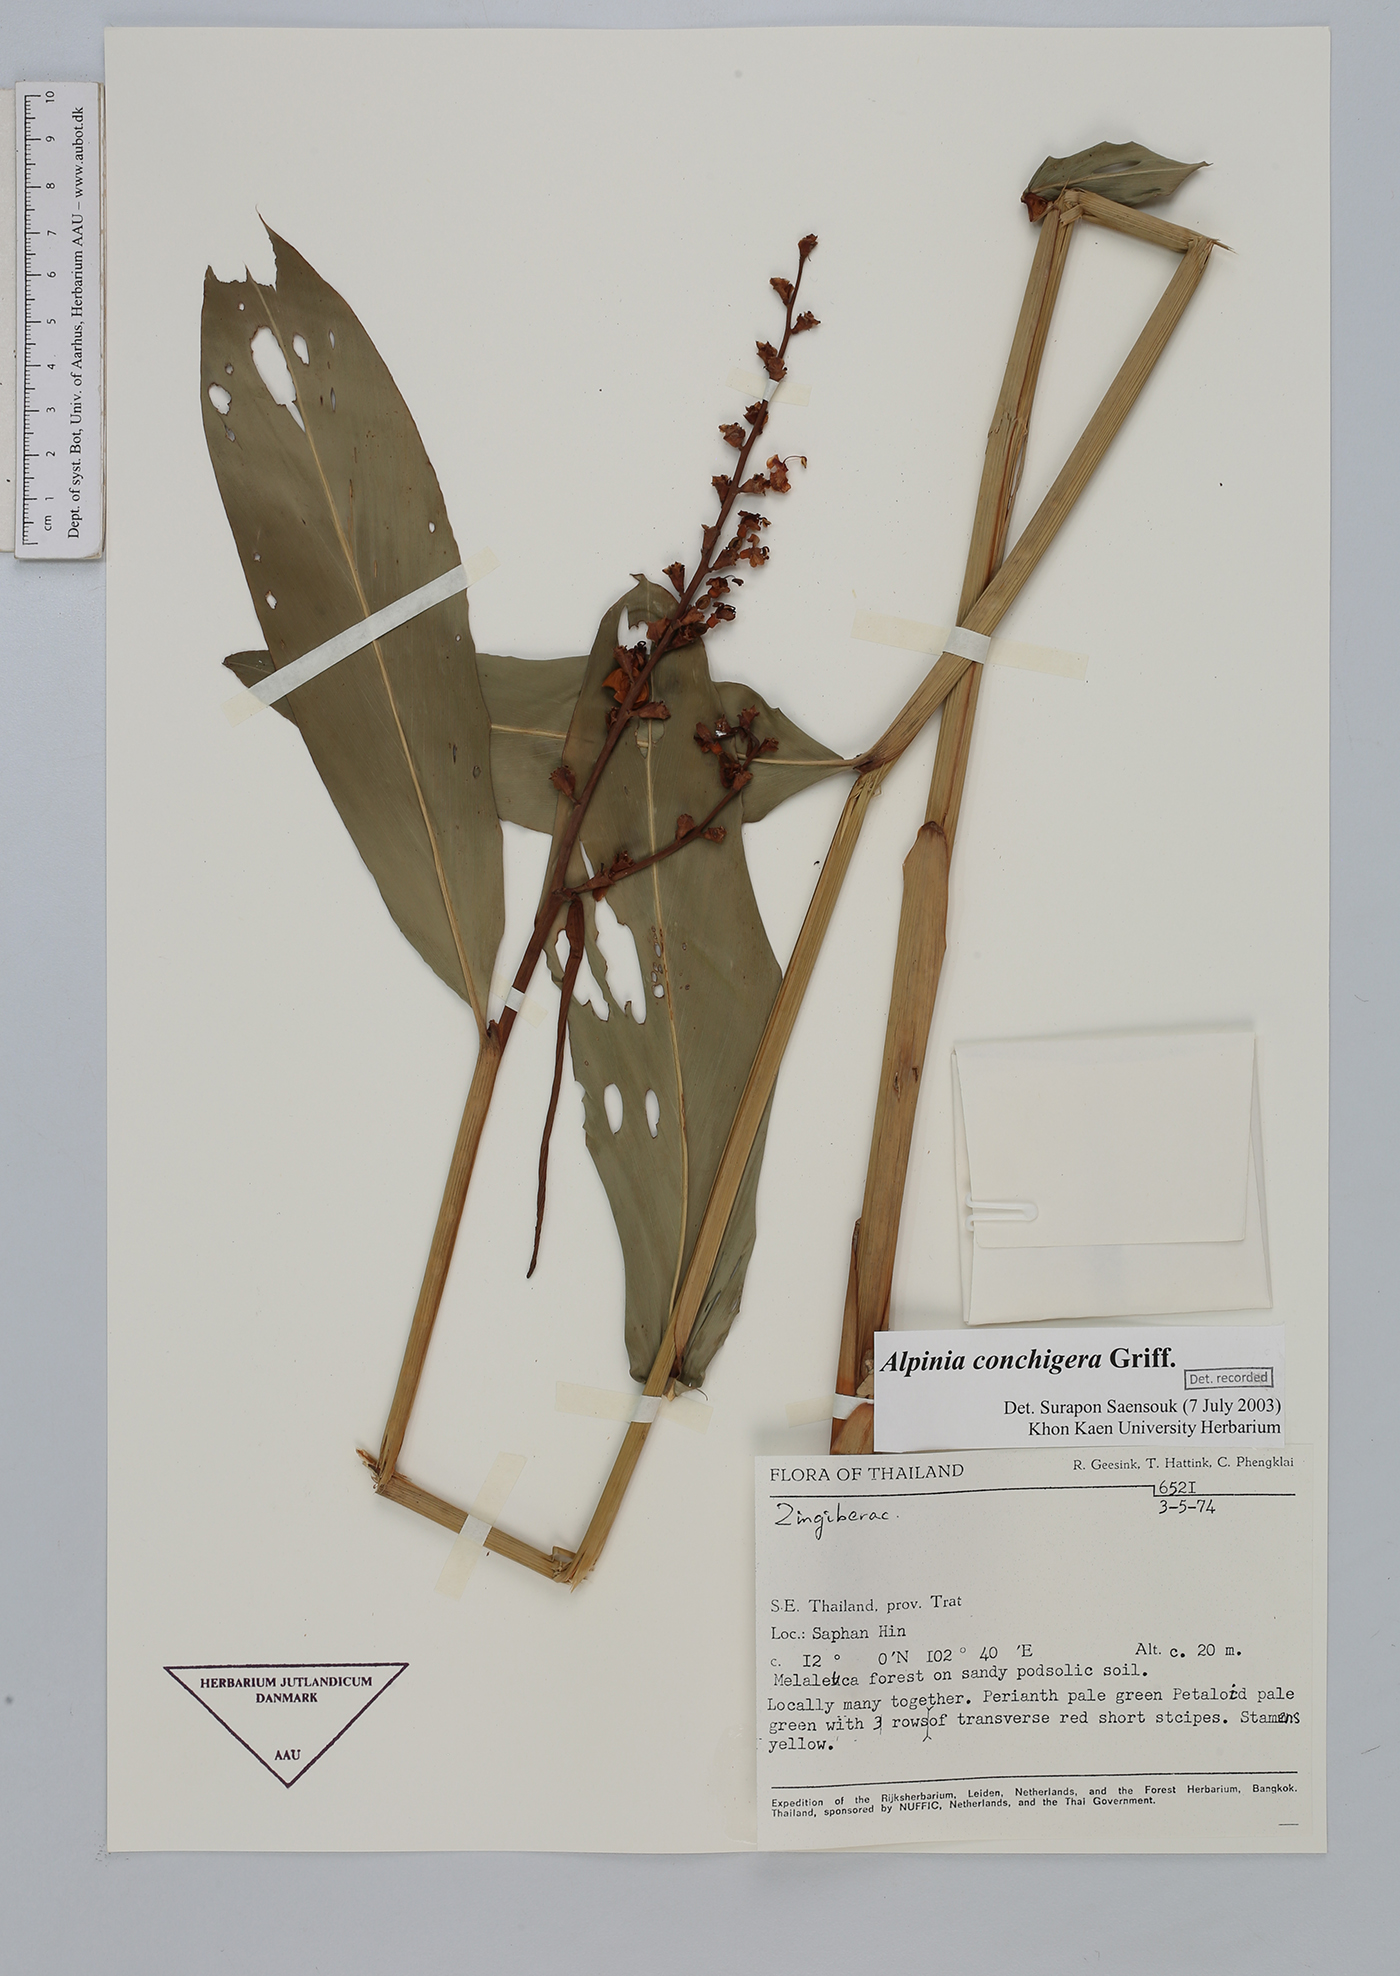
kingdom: Plantae
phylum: Tracheophyta
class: Liliopsida
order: Zingiberales
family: Zingiberaceae
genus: Alpinia
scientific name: Alpinia conchigera
